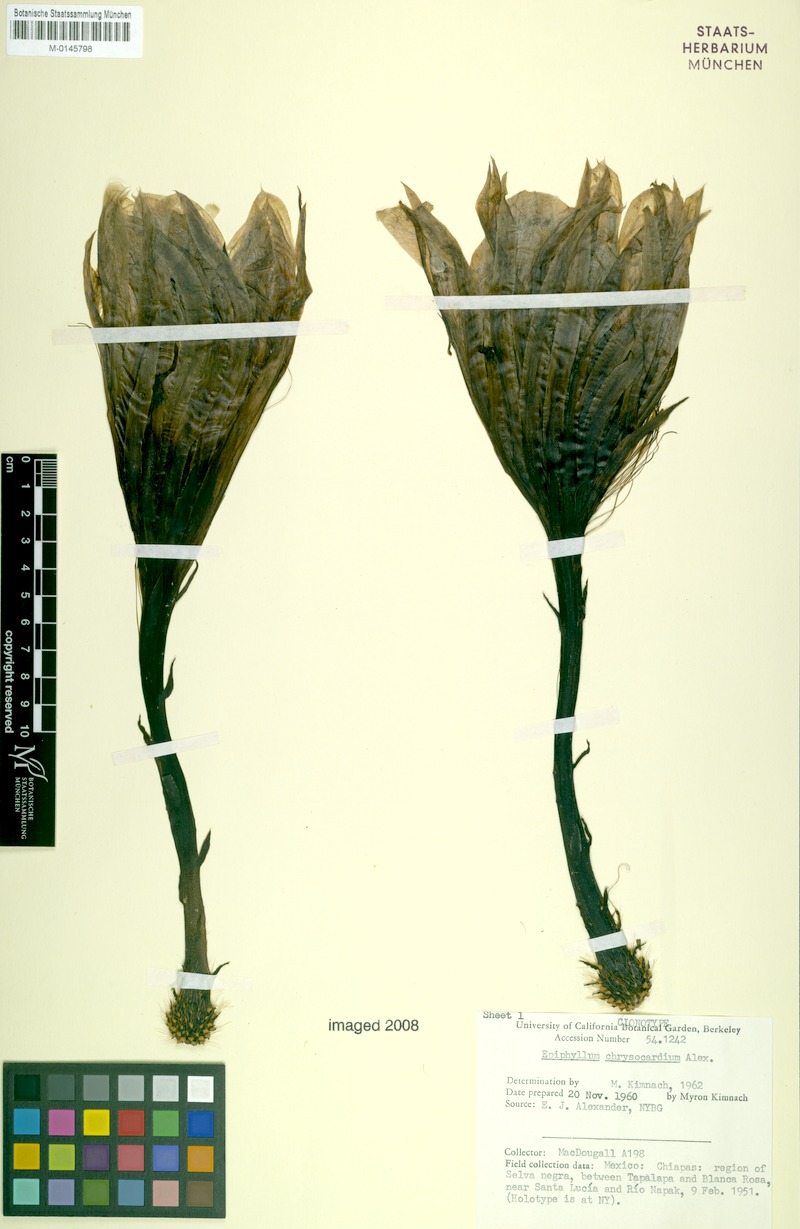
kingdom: Plantae
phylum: Tracheophyta
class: Magnoliopsida
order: Caryophyllales
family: Cactaceae
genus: Epiphyllum
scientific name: Epiphyllum chrysocardium
